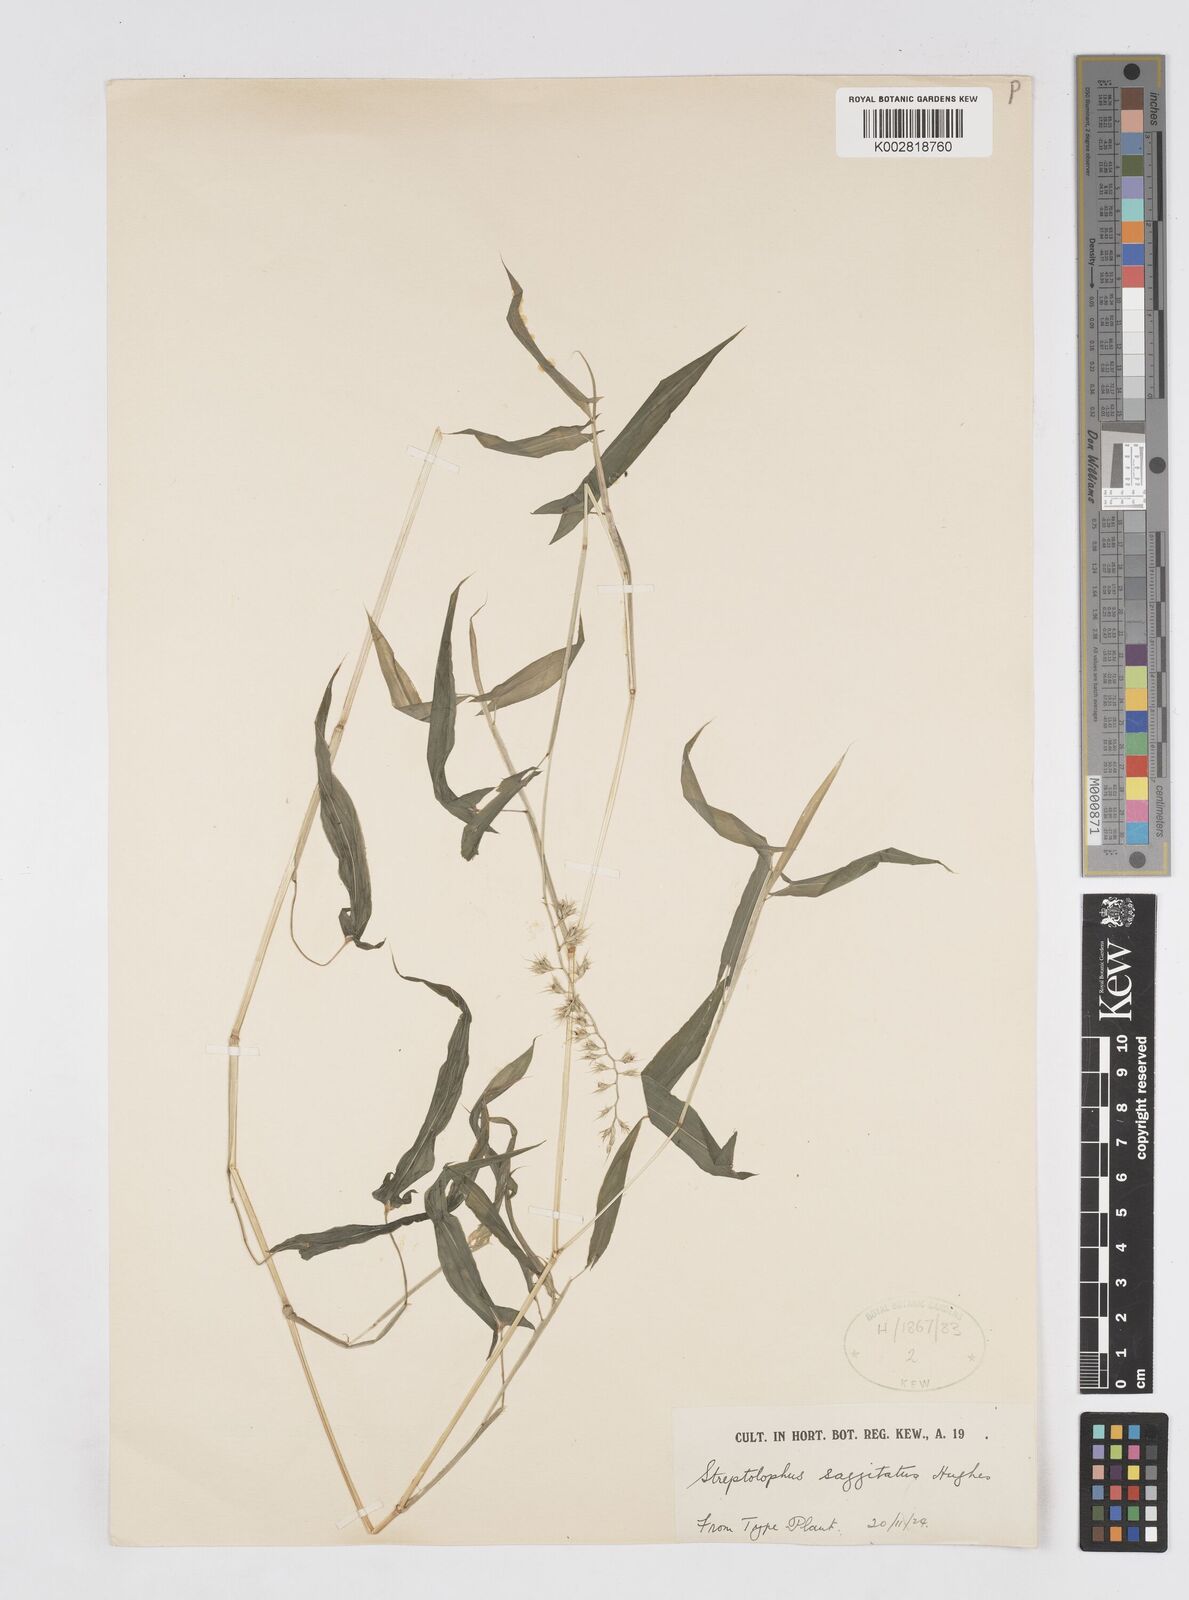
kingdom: Plantae
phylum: Tracheophyta
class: Liliopsida
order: Poales
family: Poaceae
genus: Streptolophus
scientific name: Streptolophus sagittifolius
